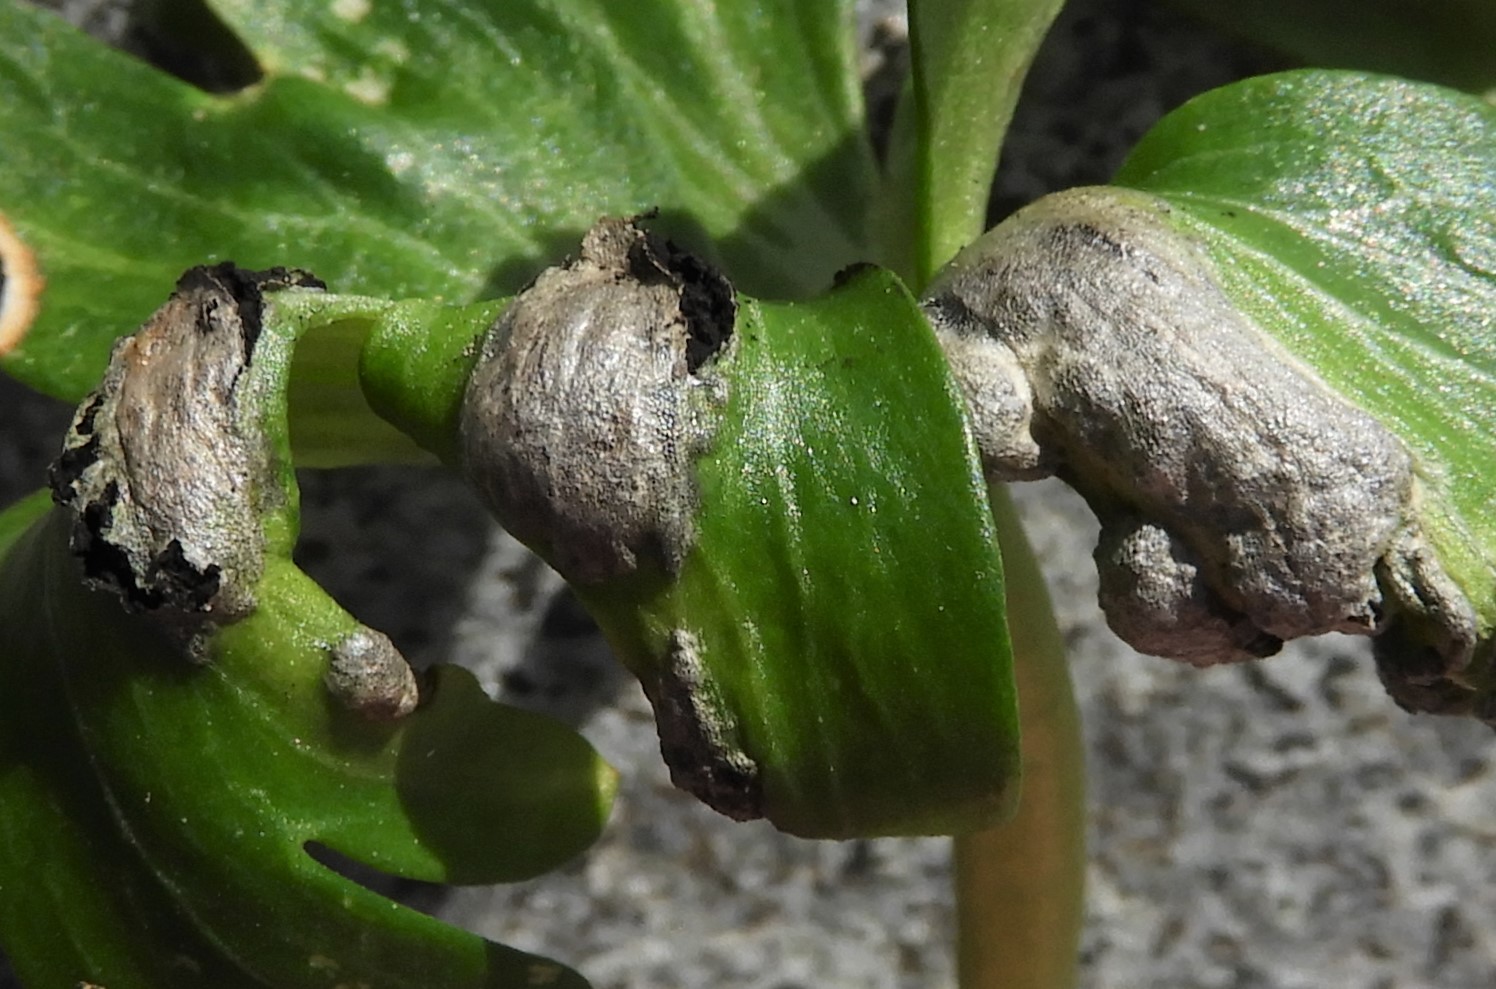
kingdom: Fungi
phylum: Basidiomycota
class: Ustilaginomycetes
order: Urocystidales
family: Urocystidaceae
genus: Urocystis
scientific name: Urocystis eranthidis
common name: erantis-brand
